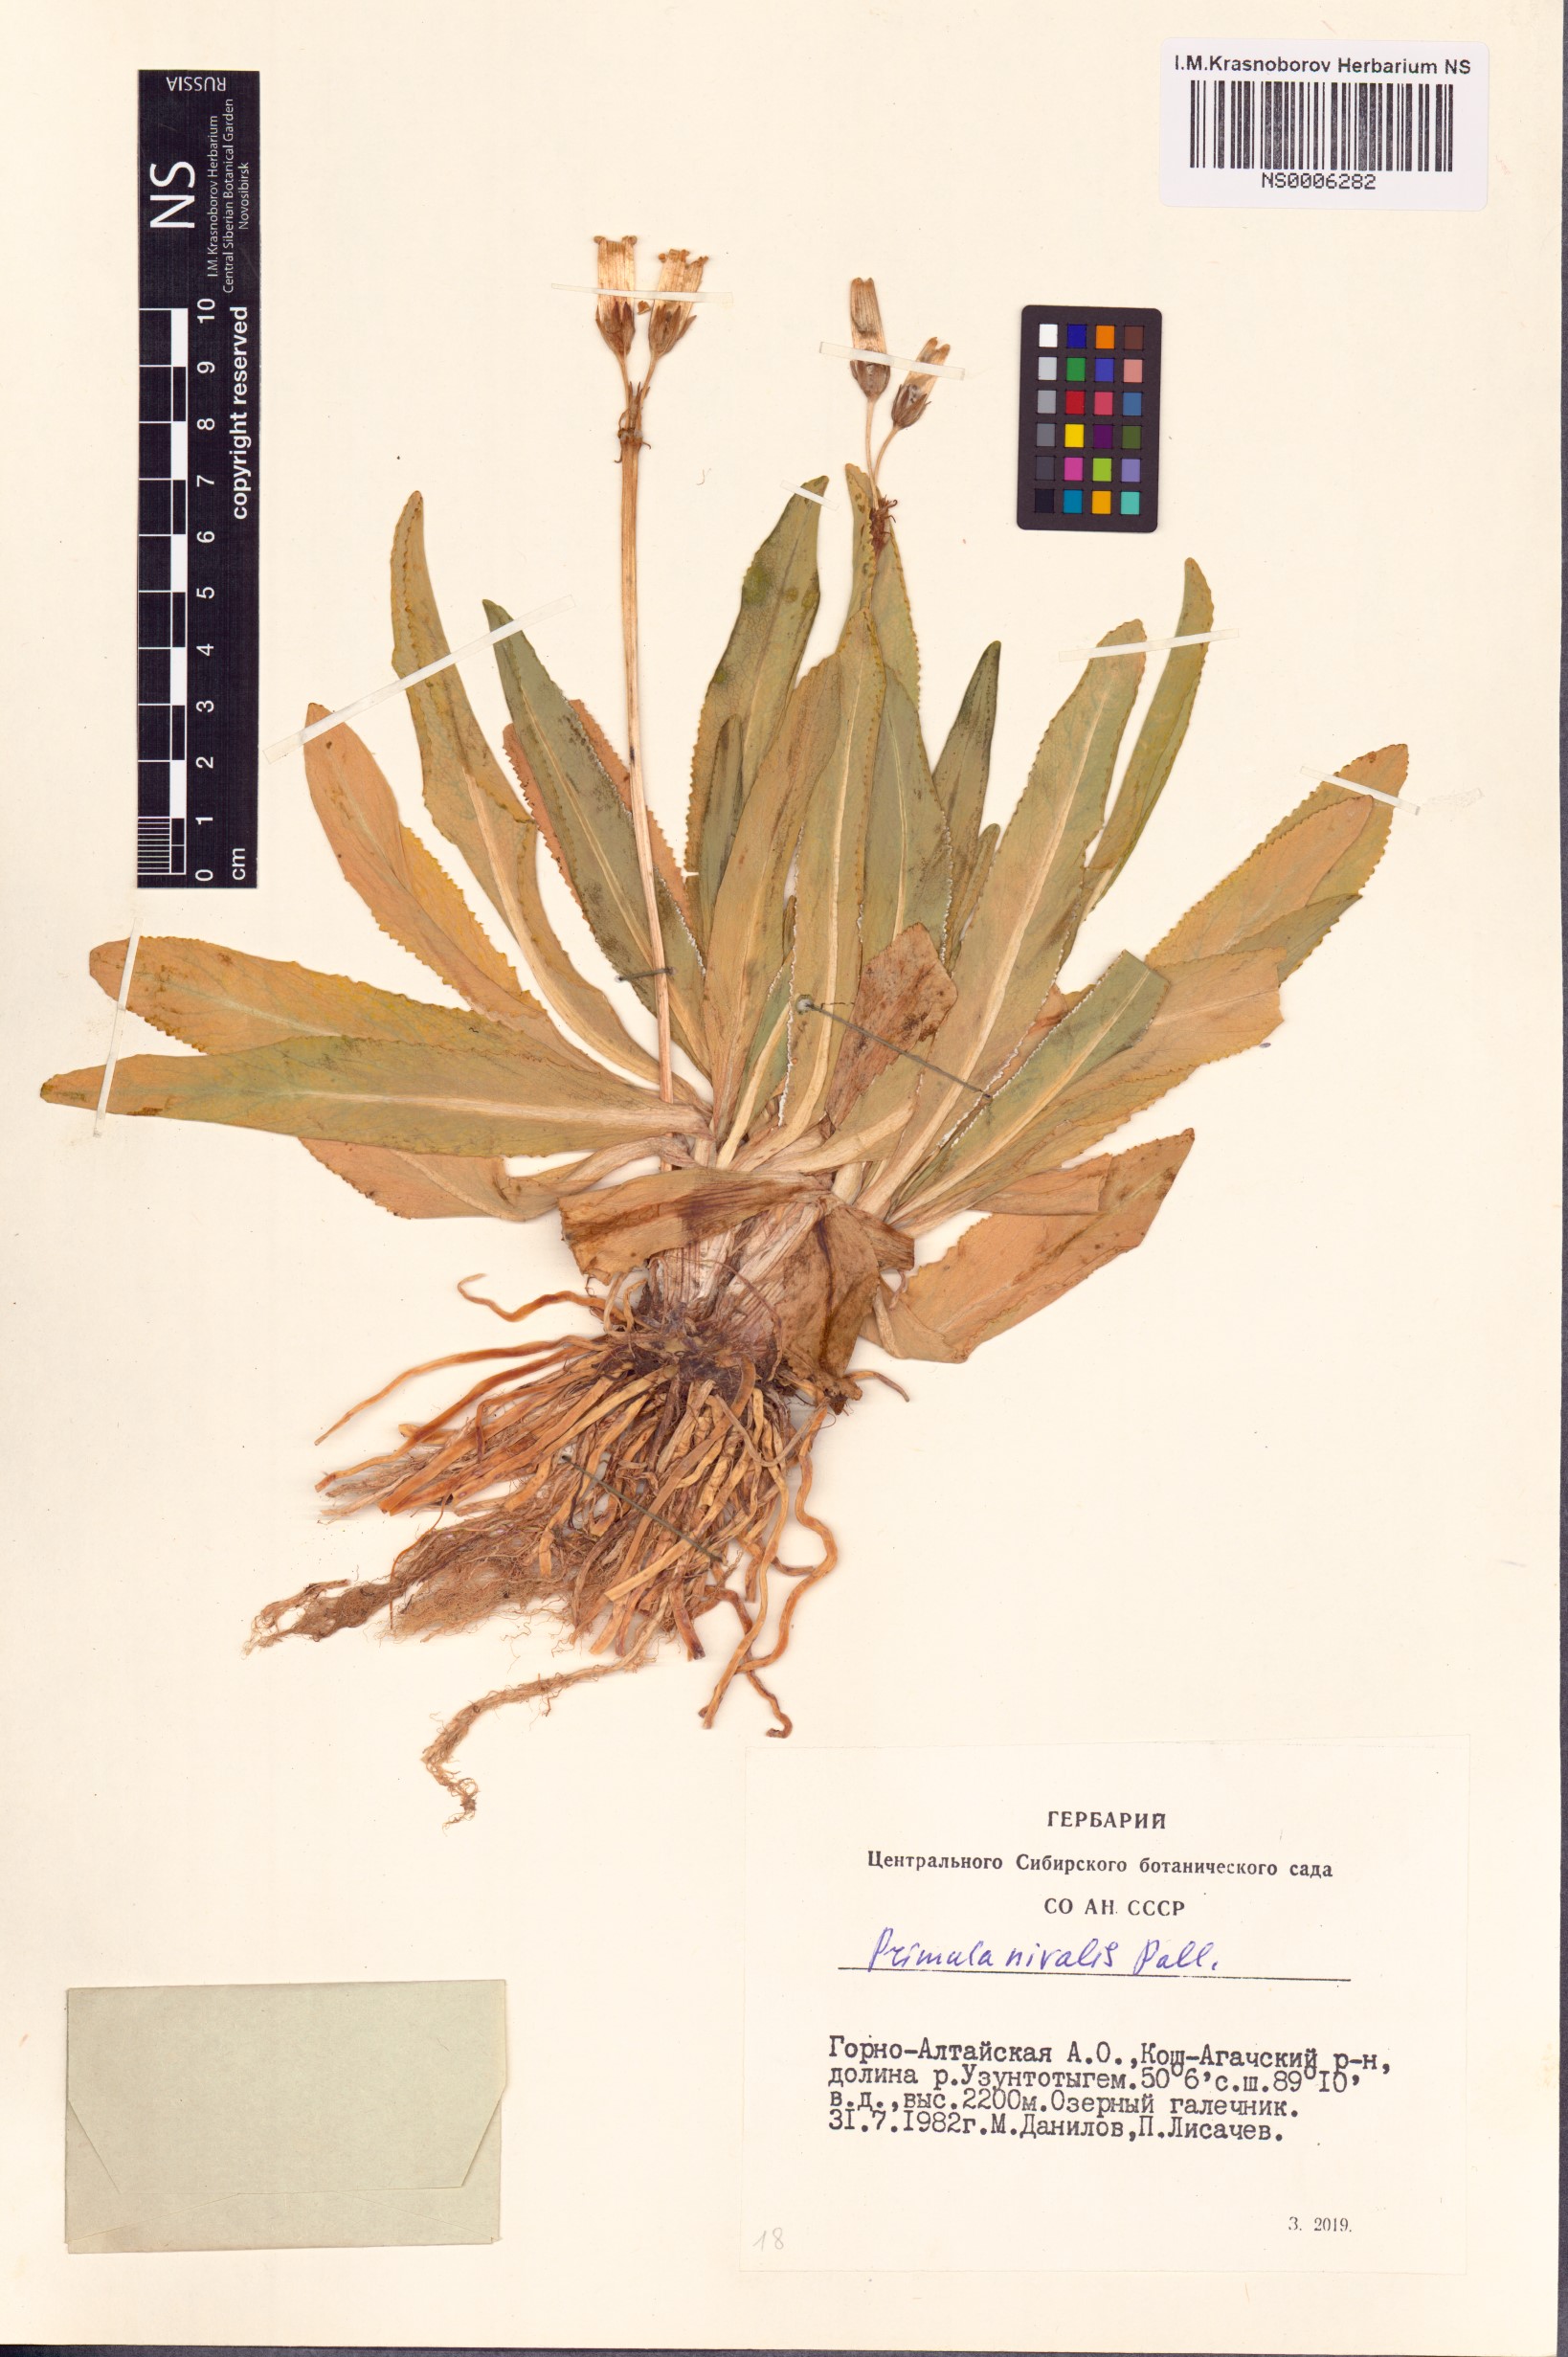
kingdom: Plantae
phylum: Tracheophyta
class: Magnoliopsida
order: Ericales
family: Primulaceae
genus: Primula
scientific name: Primula nivalis
